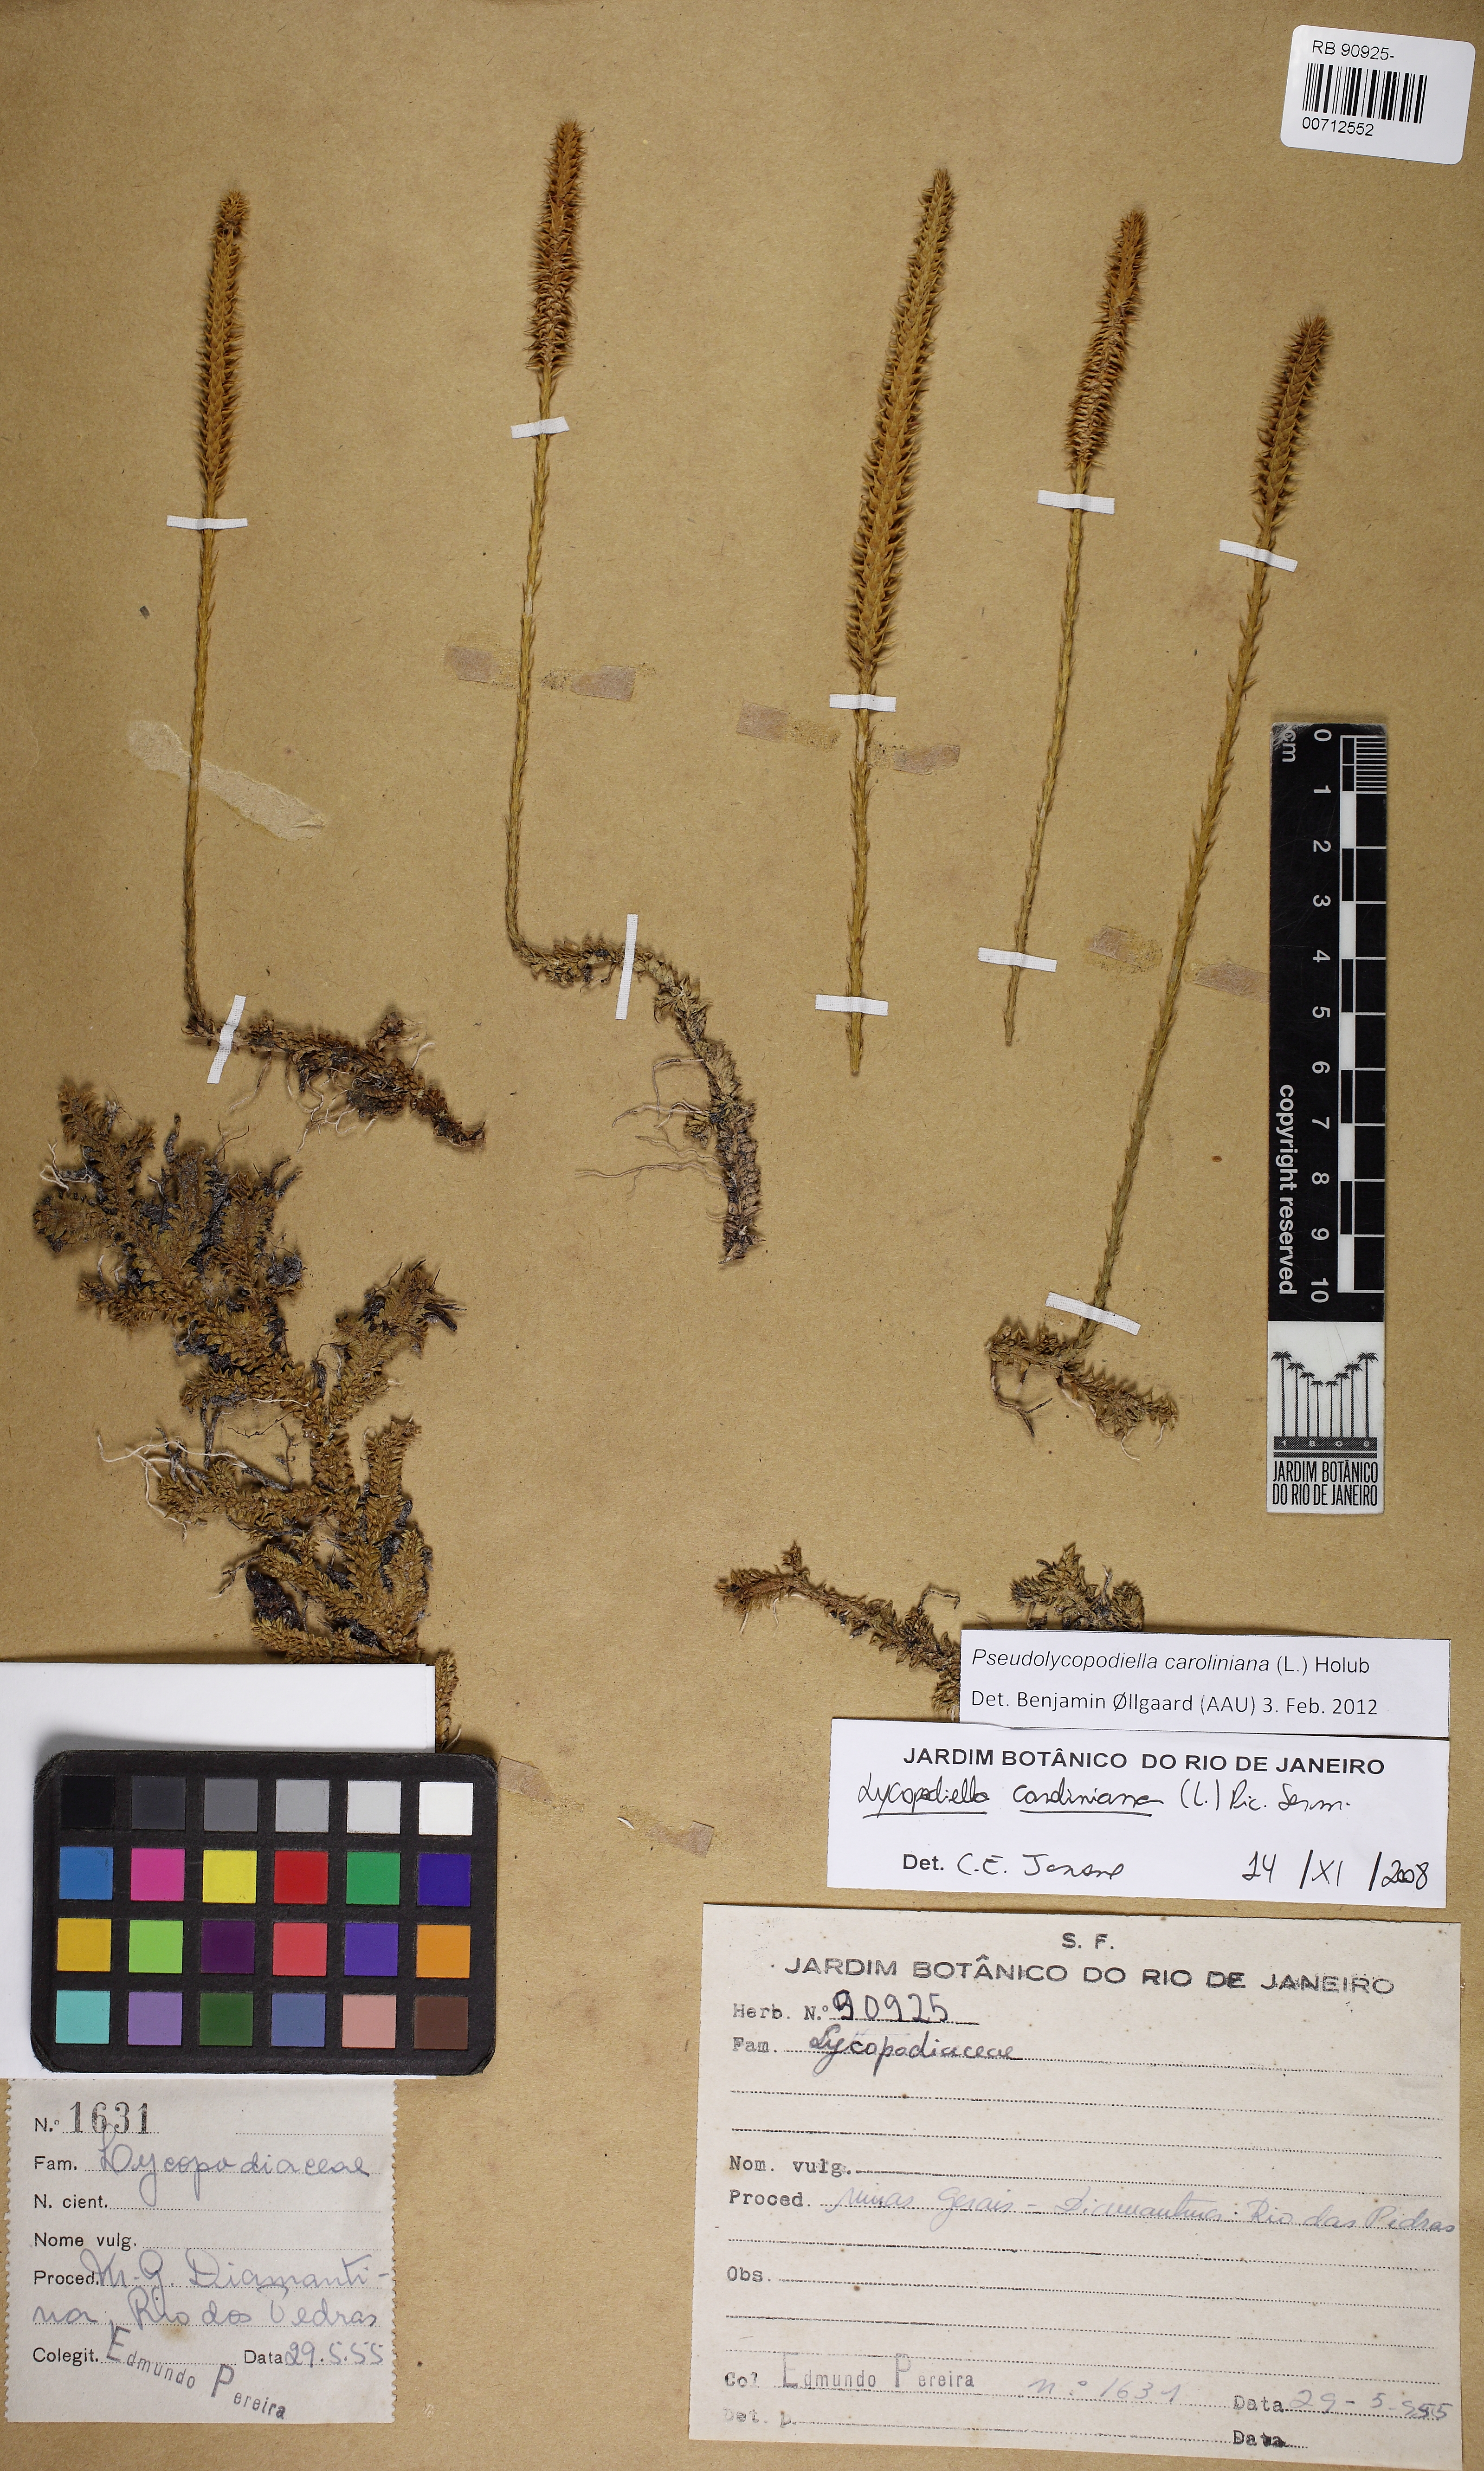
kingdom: Plantae
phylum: Tracheophyta
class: Lycopodiopsida
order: Lycopodiales
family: Lycopodiaceae
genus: Pseudolycopodiella
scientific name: Pseudolycopodiella caroliniana
